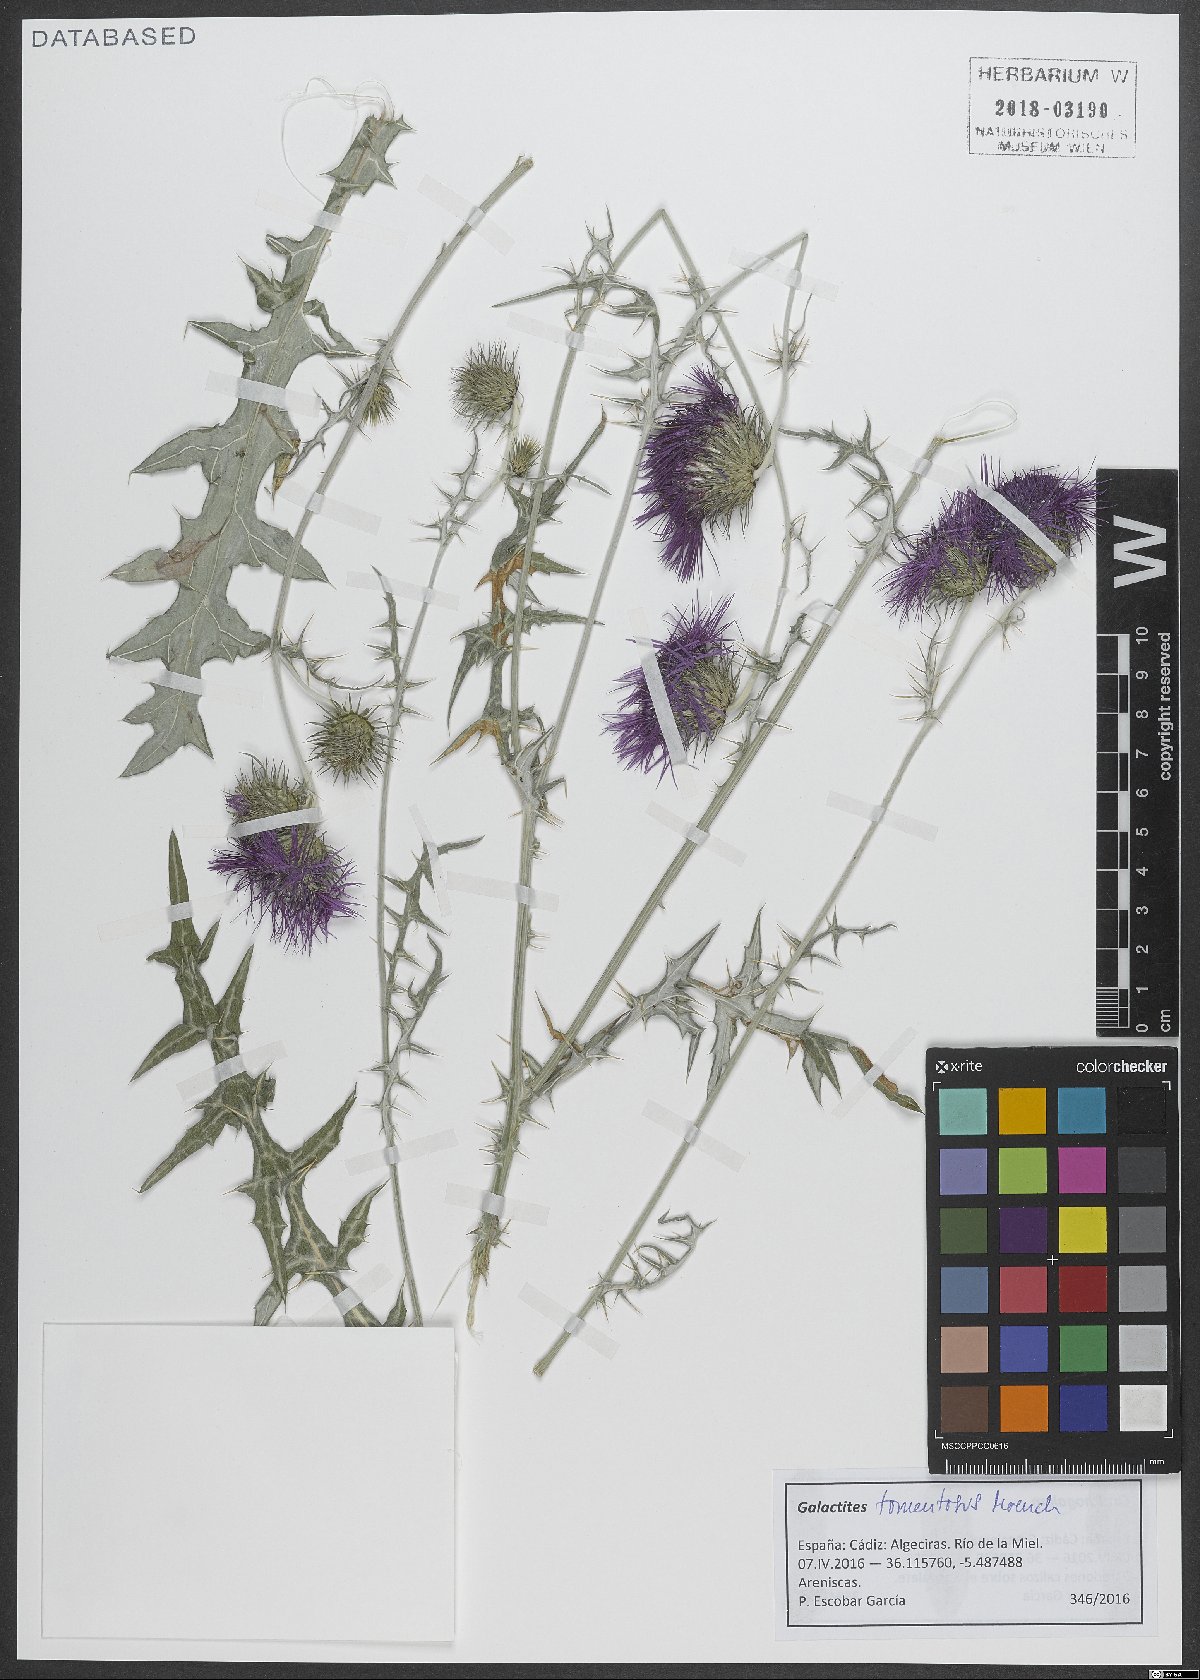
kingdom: Plantae
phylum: Tracheophyta
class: Magnoliopsida
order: Asterales
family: Asteraceae
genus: Galactites
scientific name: Galactites tomentosa
